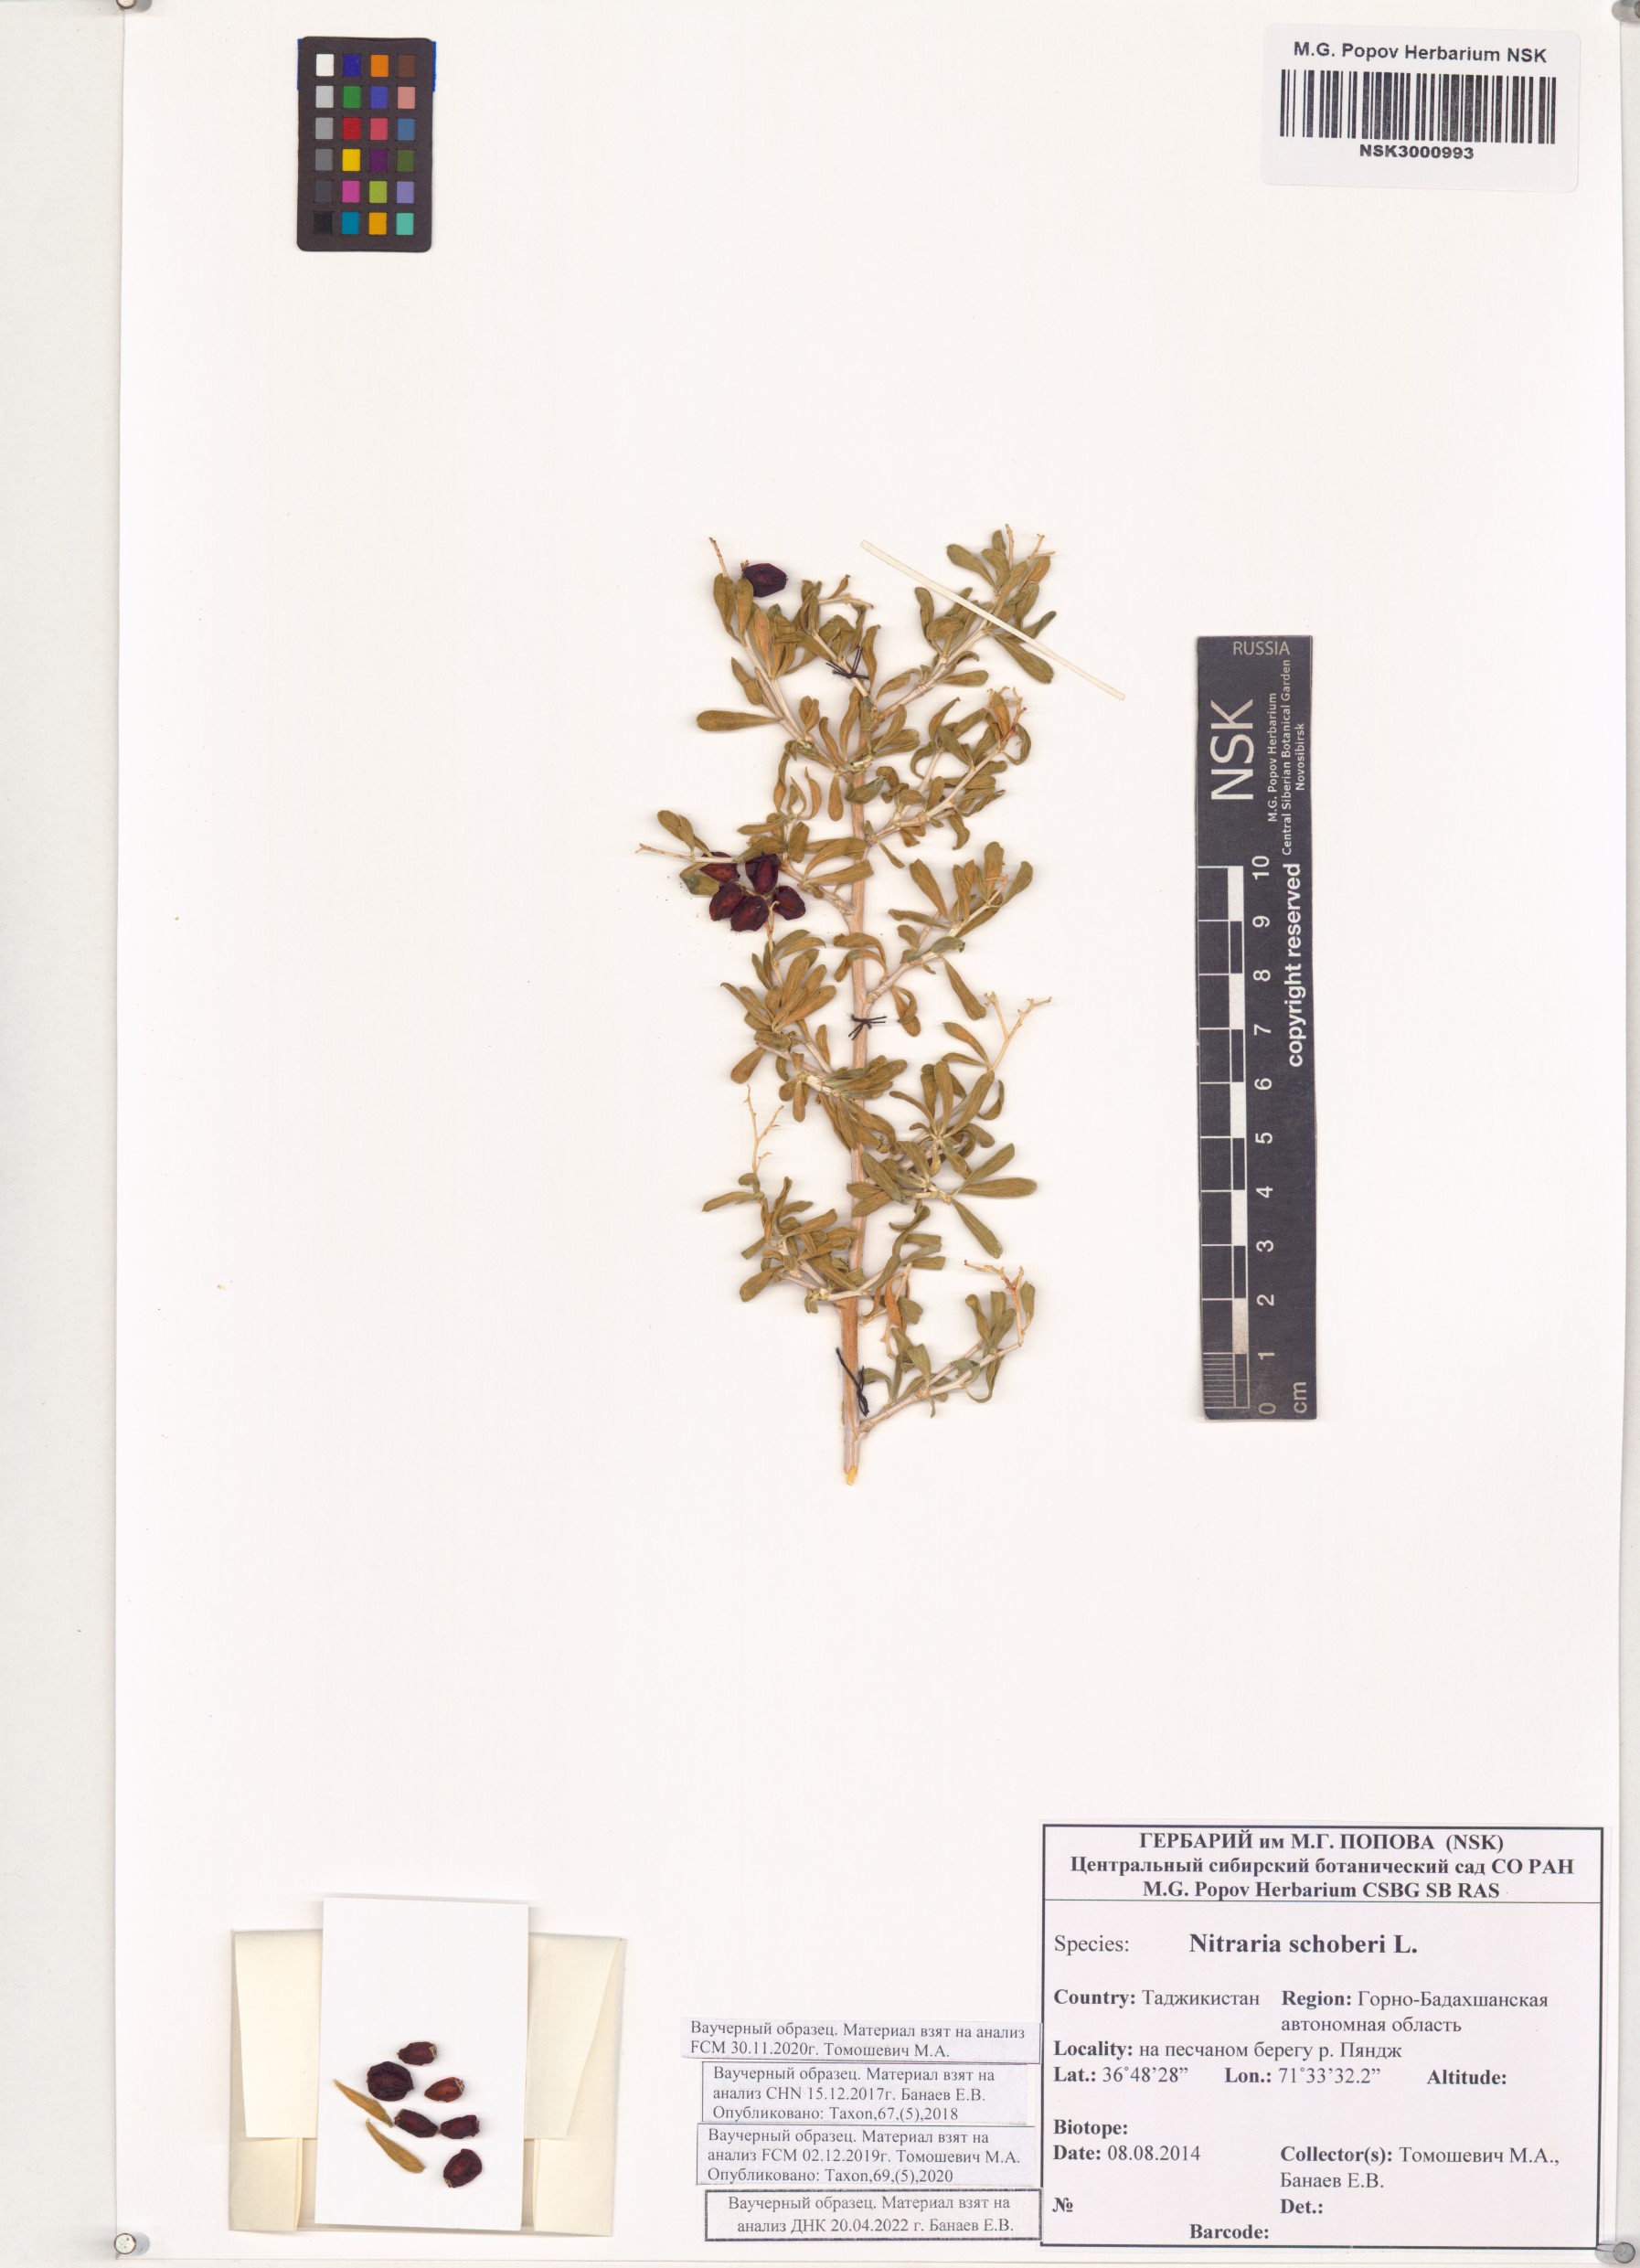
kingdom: Plantae
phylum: Tracheophyta
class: Magnoliopsida
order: Sapindales
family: Nitrariaceae
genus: Nitraria
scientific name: Nitraria schoberi
